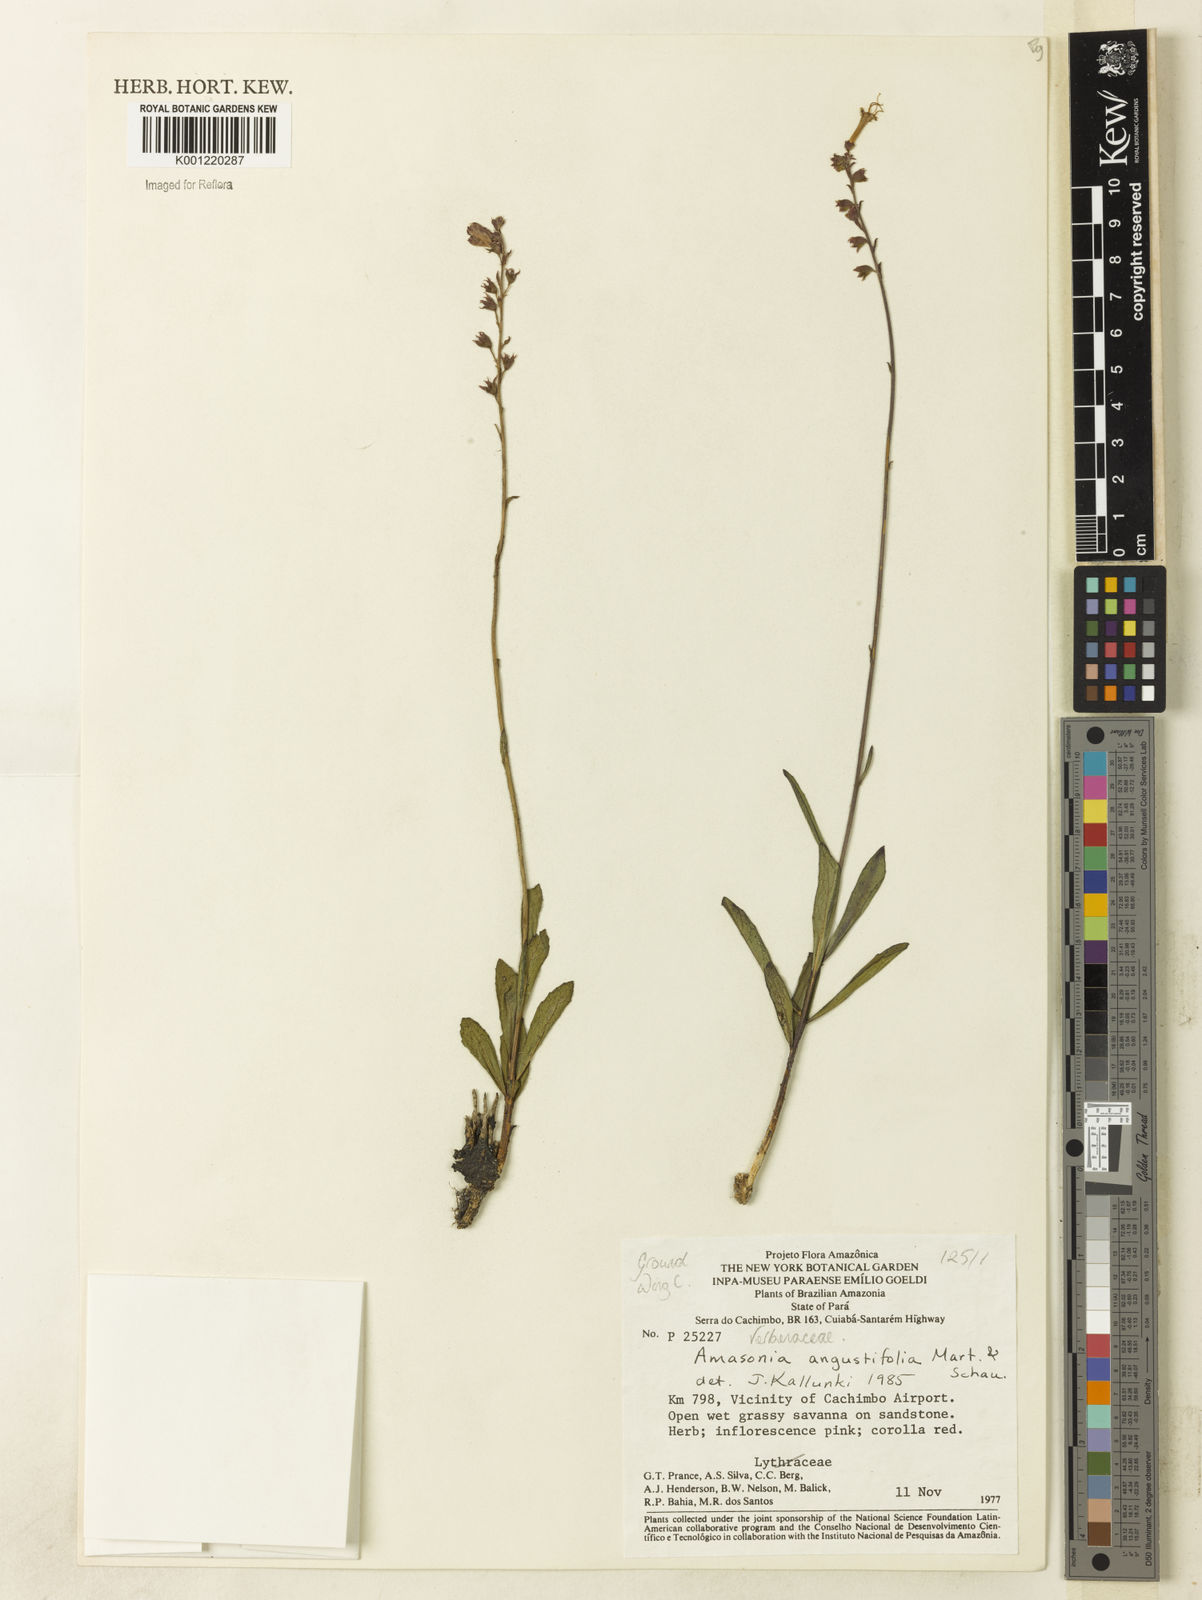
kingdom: Plantae
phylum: Tracheophyta
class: Magnoliopsida
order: Lamiales
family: Lamiaceae
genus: Amasonia
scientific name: Amasonia angustifolia
